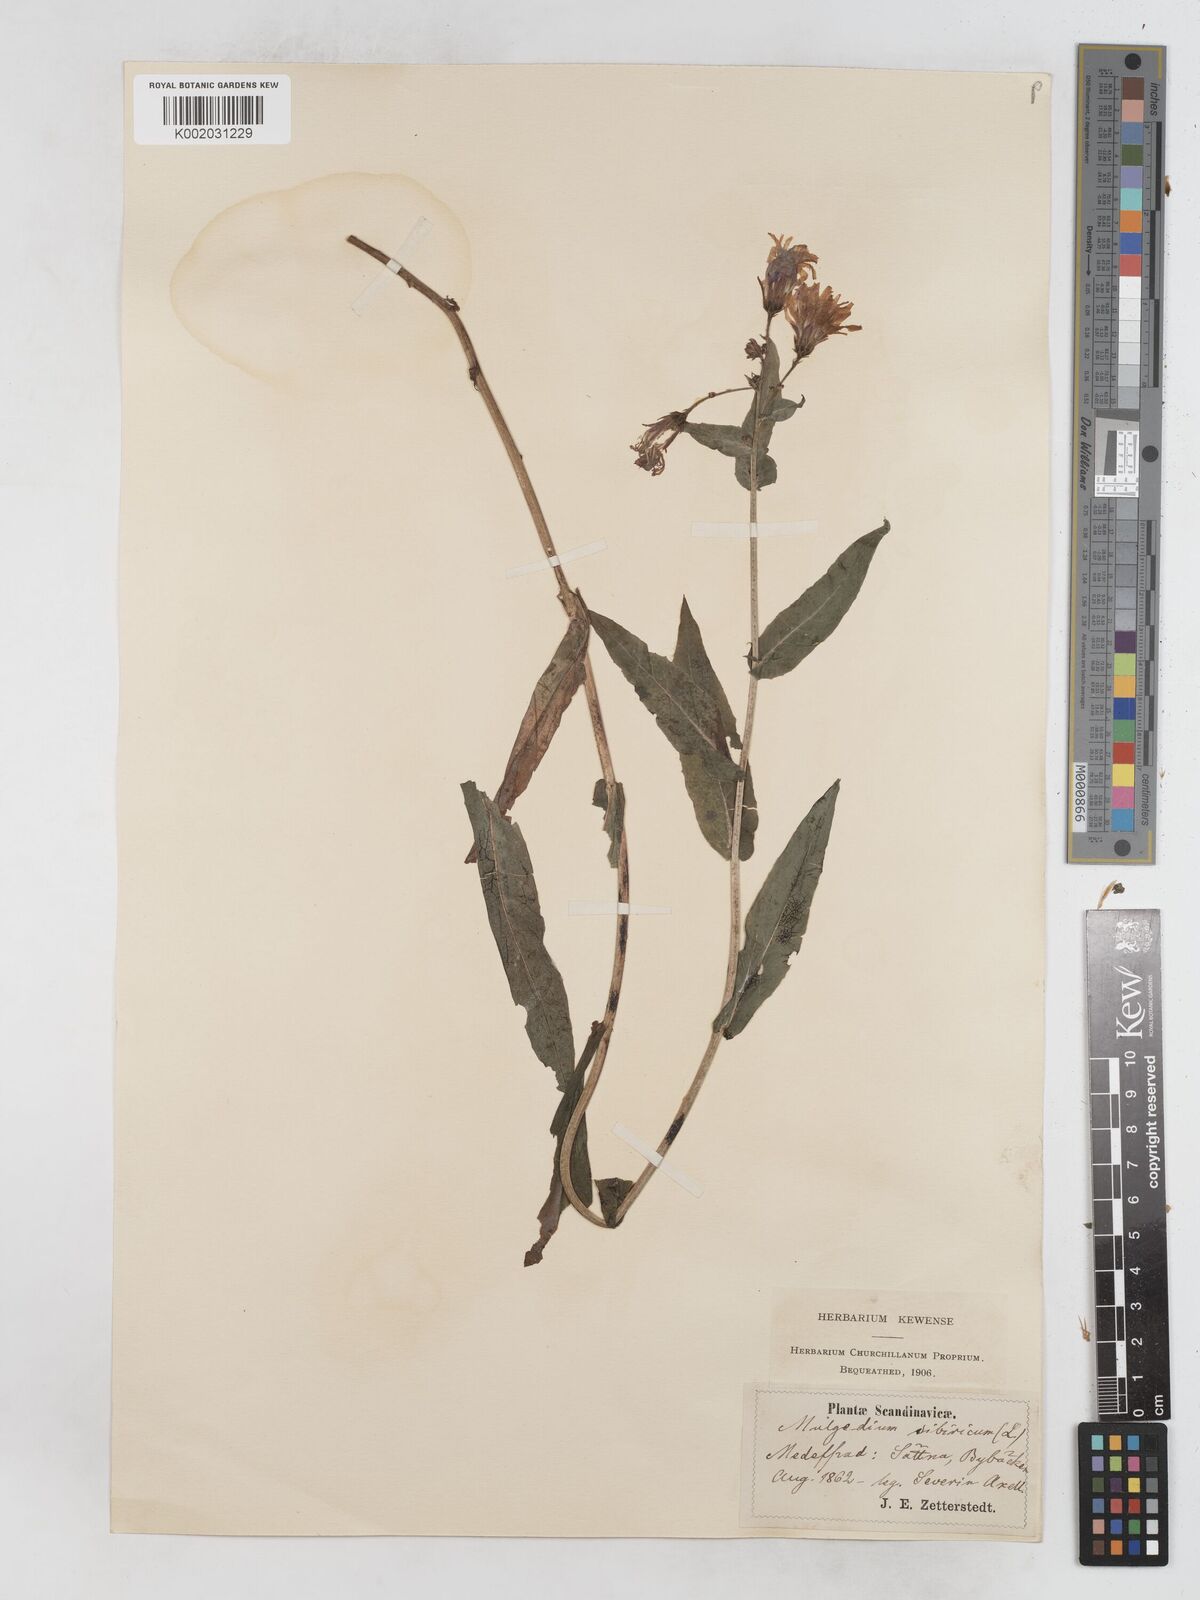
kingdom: Plantae
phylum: Tracheophyta
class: Magnoliopsida
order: Asterales
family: Asteraceae
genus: Lactuca
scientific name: Lactuca sibirica
